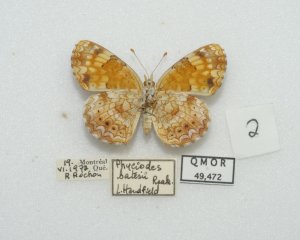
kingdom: Animalia
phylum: Arthropoda
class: Insecta
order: Lepidoptera
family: Nymphalidae
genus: Phyciodes
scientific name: Phyciodes tharos
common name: Northern Crescent
